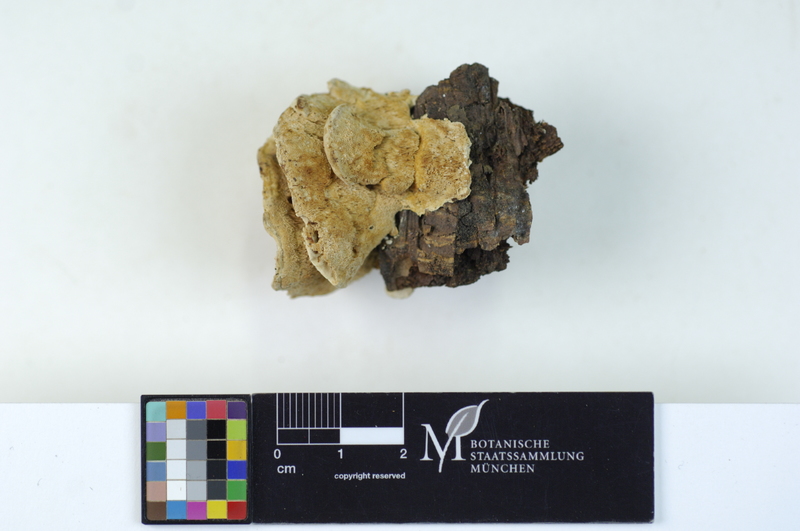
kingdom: Fungi
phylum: Basidiomycota
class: Agaricomycetes
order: Polyporales
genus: Amaropostia
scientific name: Amaropostia stiptica
